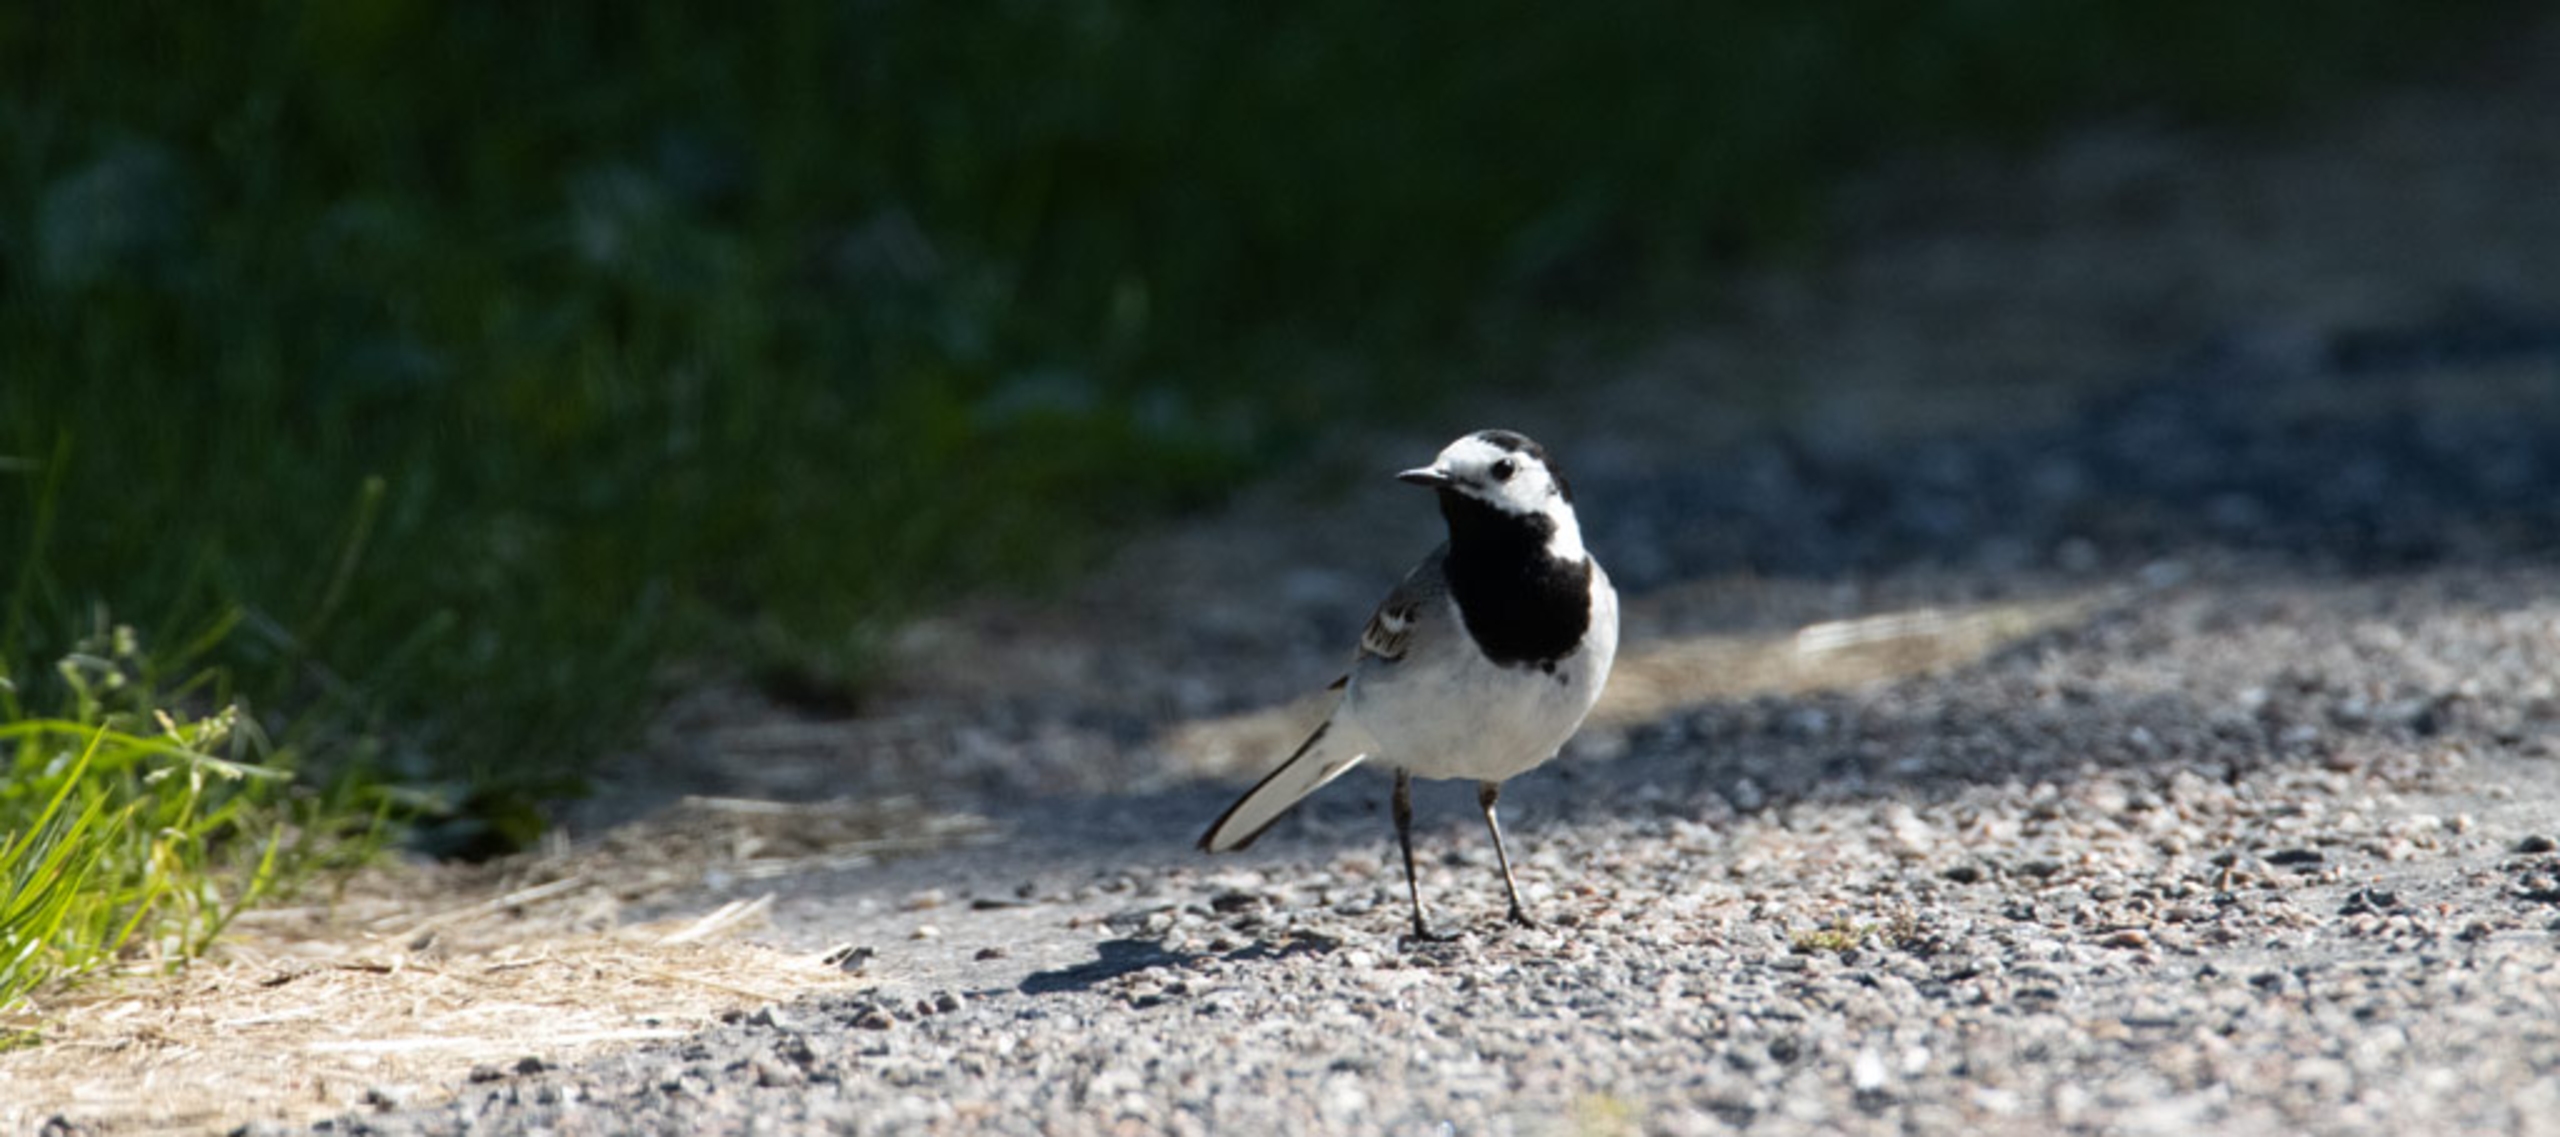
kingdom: Animalia
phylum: Chordata
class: Aves
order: Passeriformes
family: Motacillidae
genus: Motacilla
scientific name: Motacilla alba
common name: Hvid vipstjert
